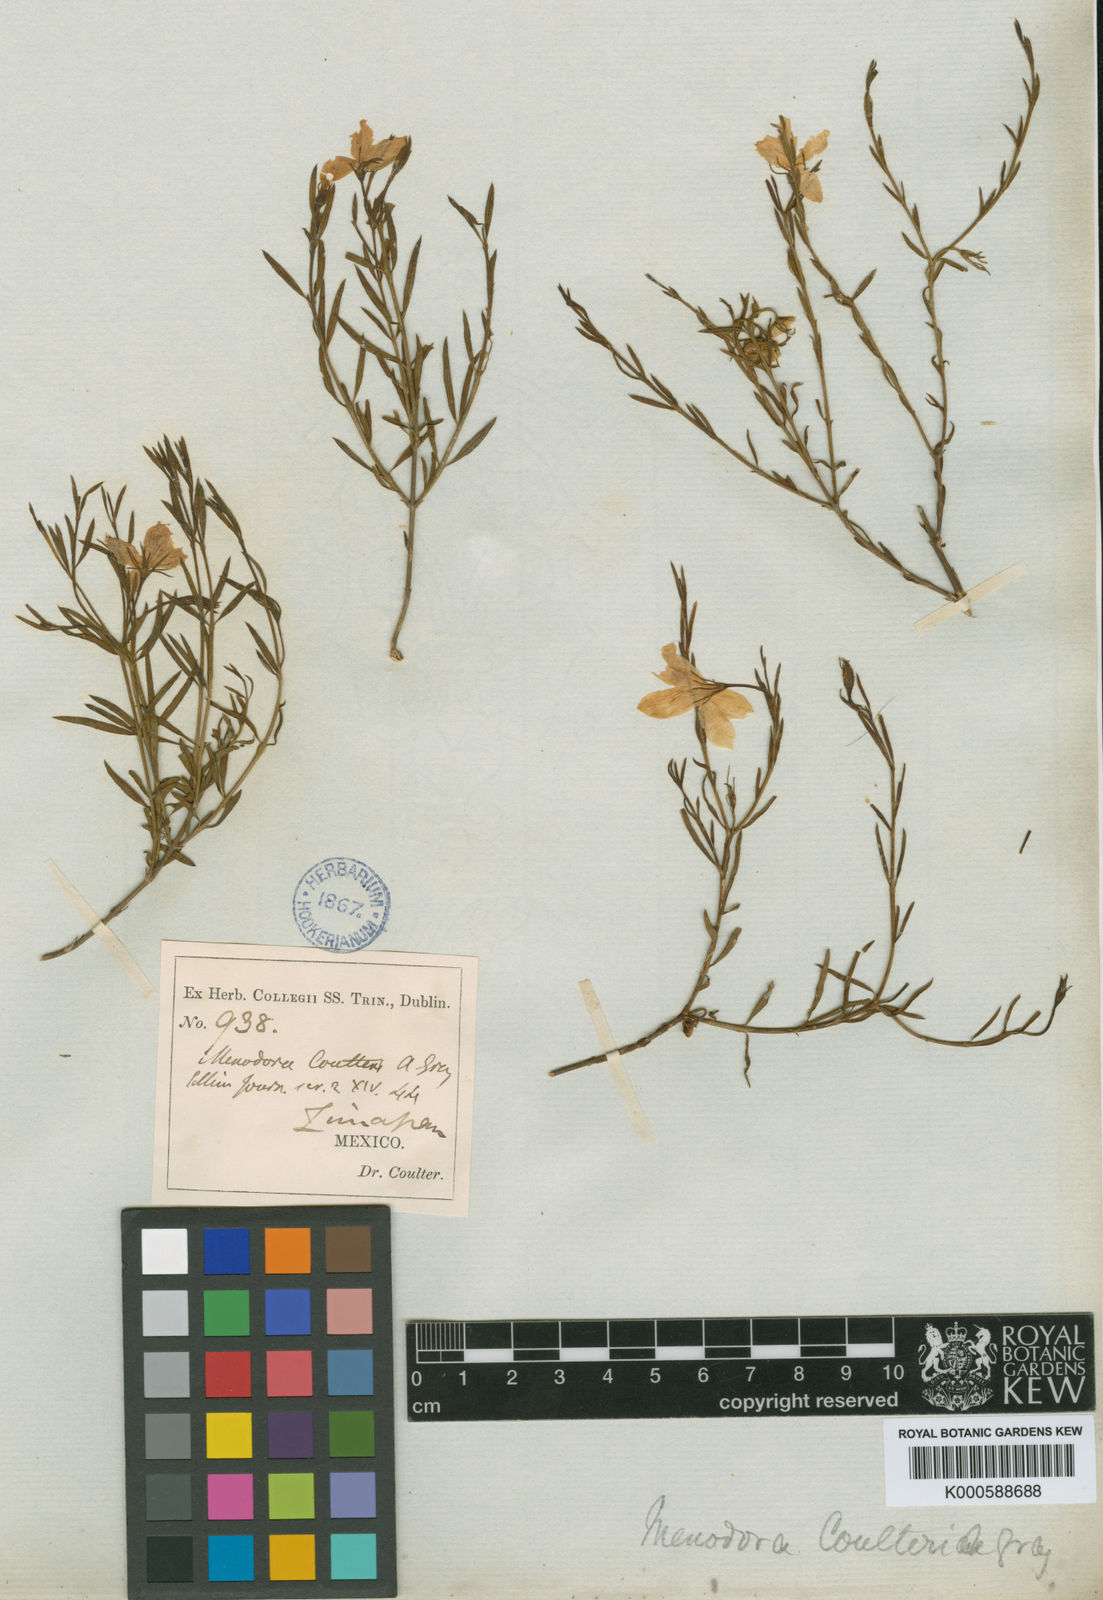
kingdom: Plantae
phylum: Tracheophyta
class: Magnoliopsida
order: Lamiales
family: Oleaceae
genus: Menodora
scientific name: Menodora coulteri
